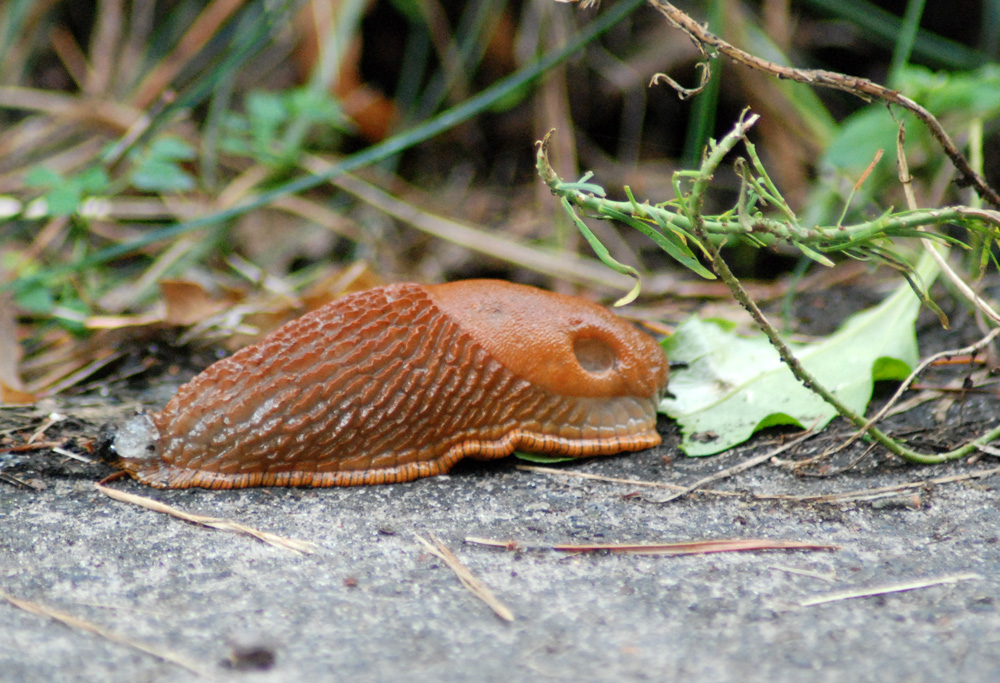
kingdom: Animalia
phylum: Mollusca
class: Gastropoda
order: Stylommatophora
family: Arionidae
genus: Arion
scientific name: Arion
